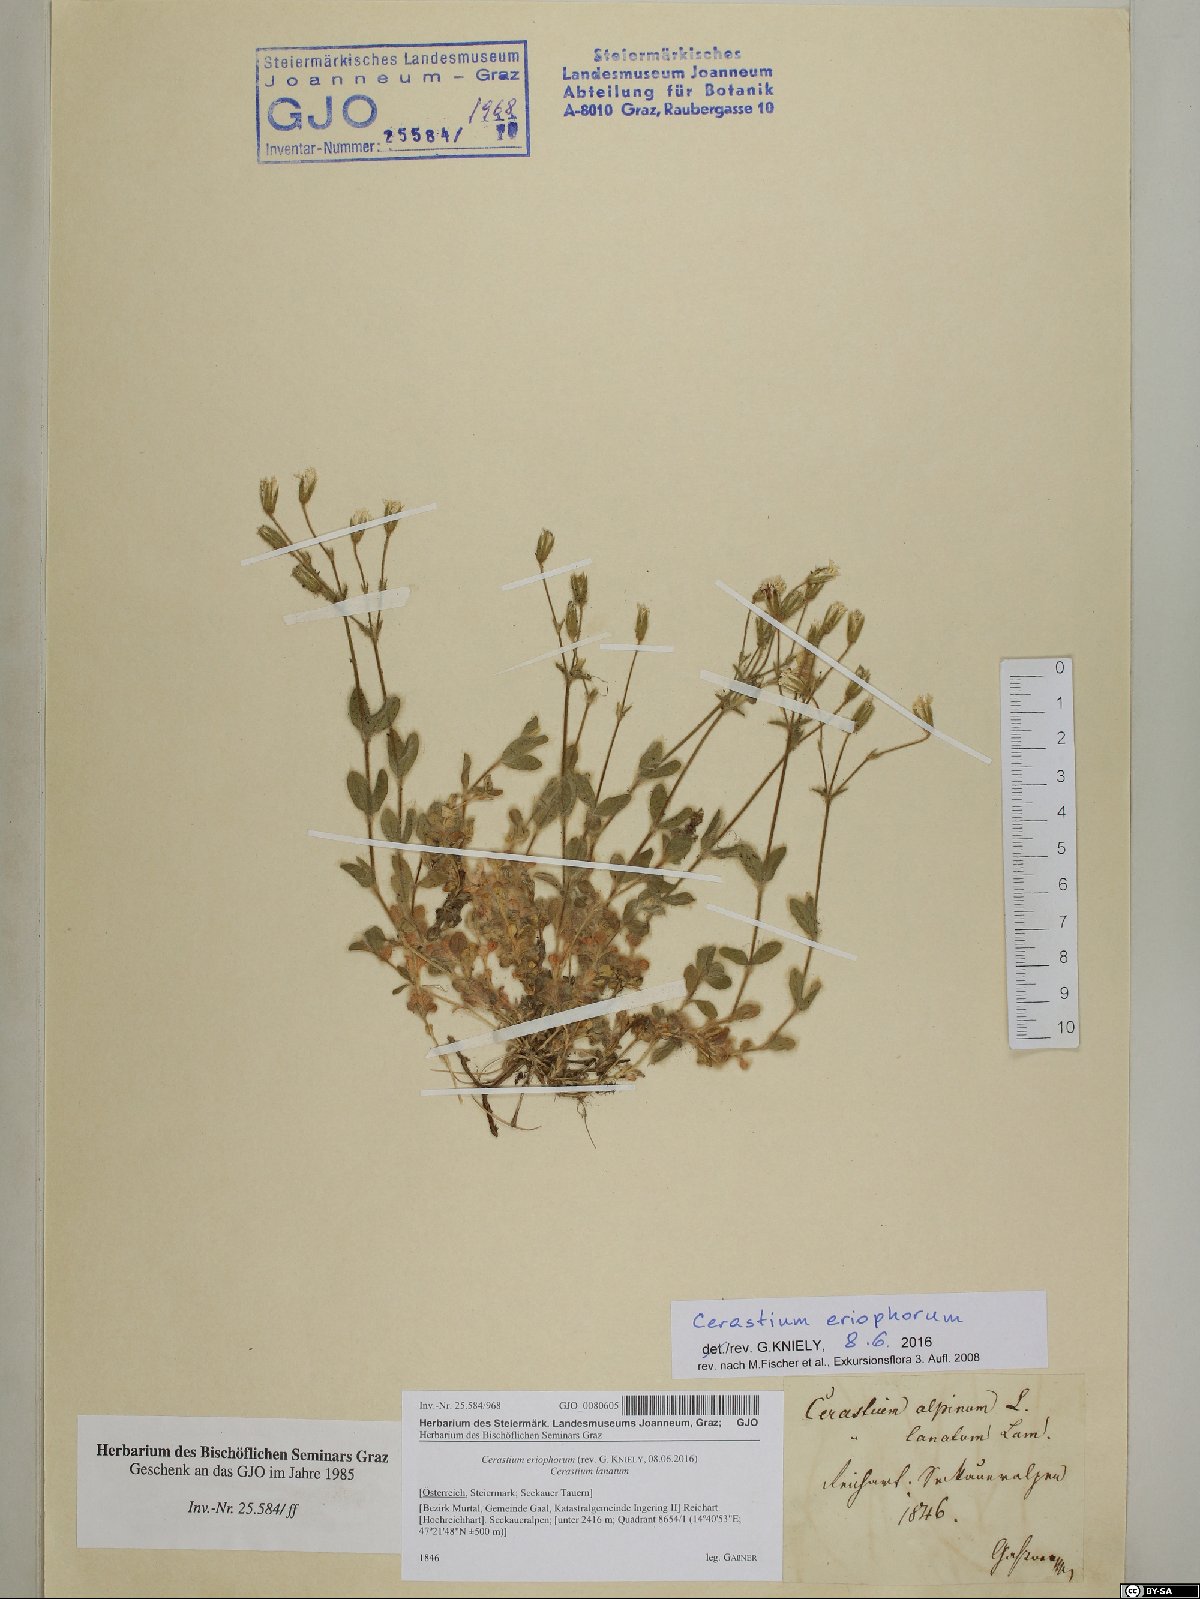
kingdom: Plantae
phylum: Tracheophyta
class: Magnoliopsida
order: Caryophyllales
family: Caryophyllaceae
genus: Cerastium
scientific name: Cerastium eriophorum
